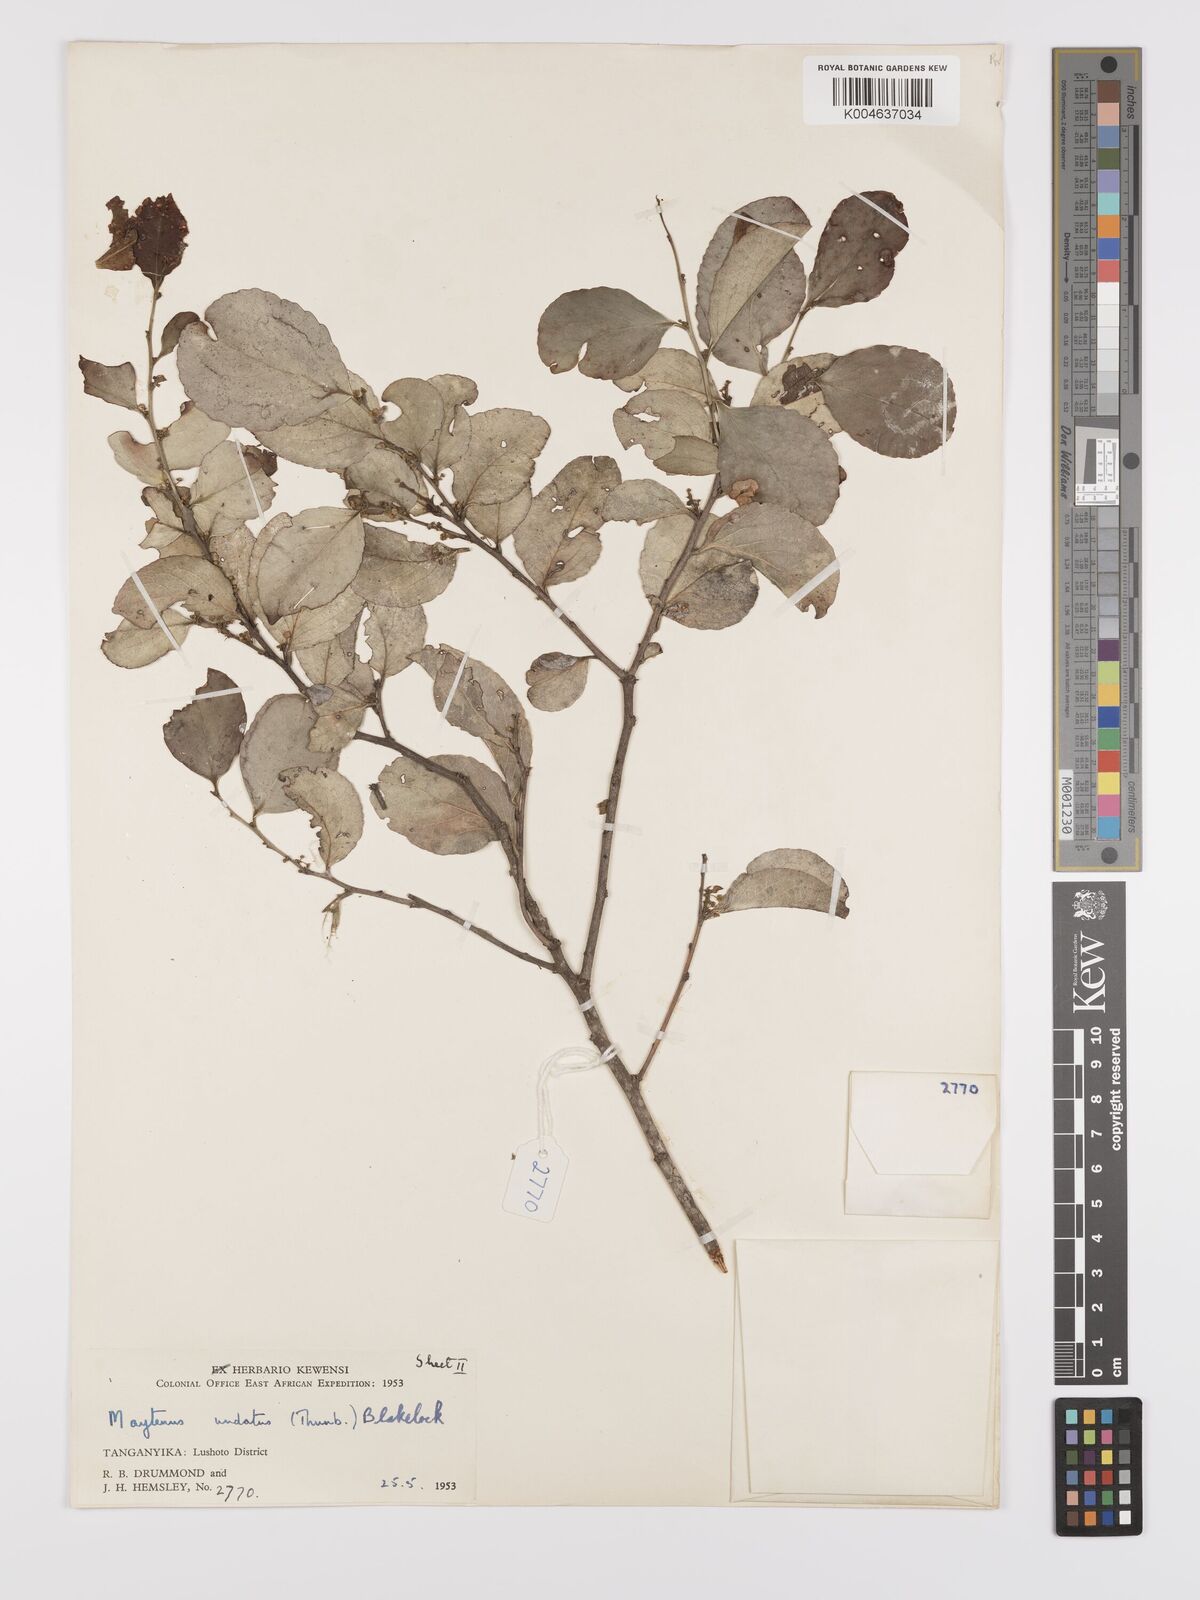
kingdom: Plantae
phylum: Tracheophyta
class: Magnoliopsida
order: Celastrales
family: Celastraceae
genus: Gymnosporia
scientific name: Gymnosporia undata
